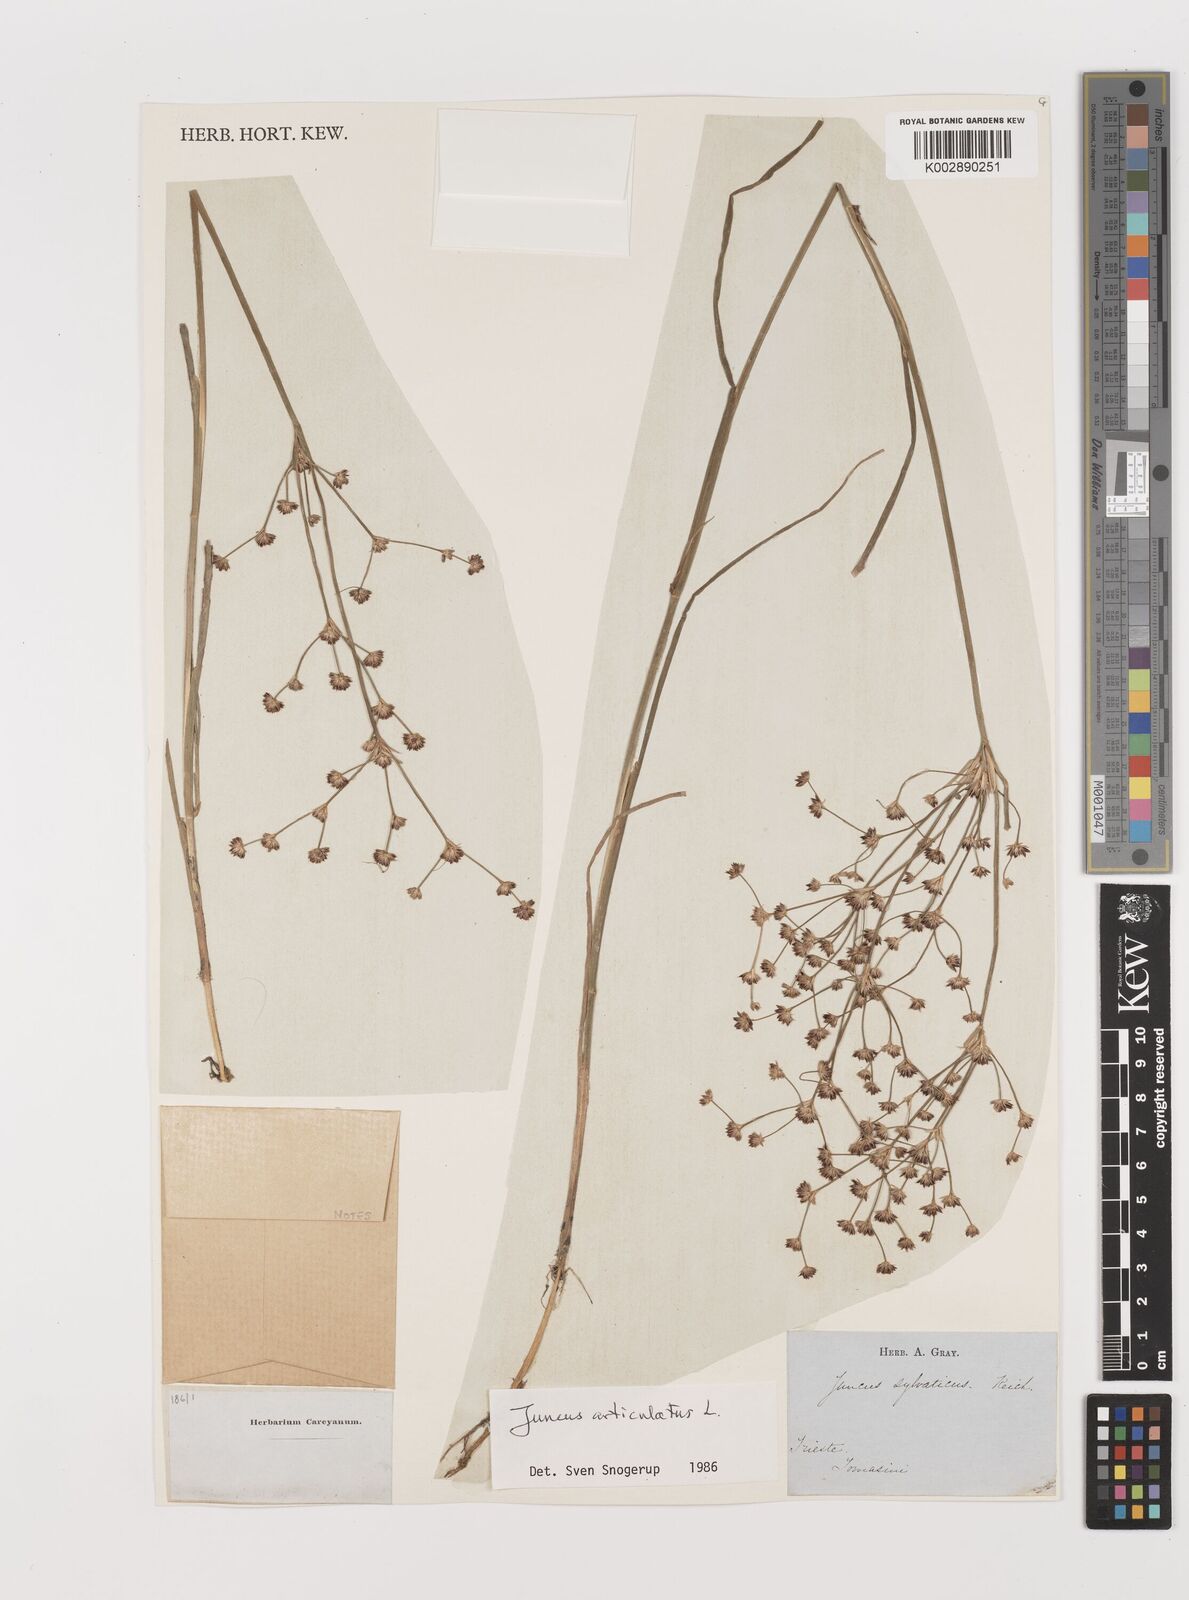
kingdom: Plantae
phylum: Tracheophyta
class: Liliopsida
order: Poales
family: Juncaceae
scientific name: Juncaceae
